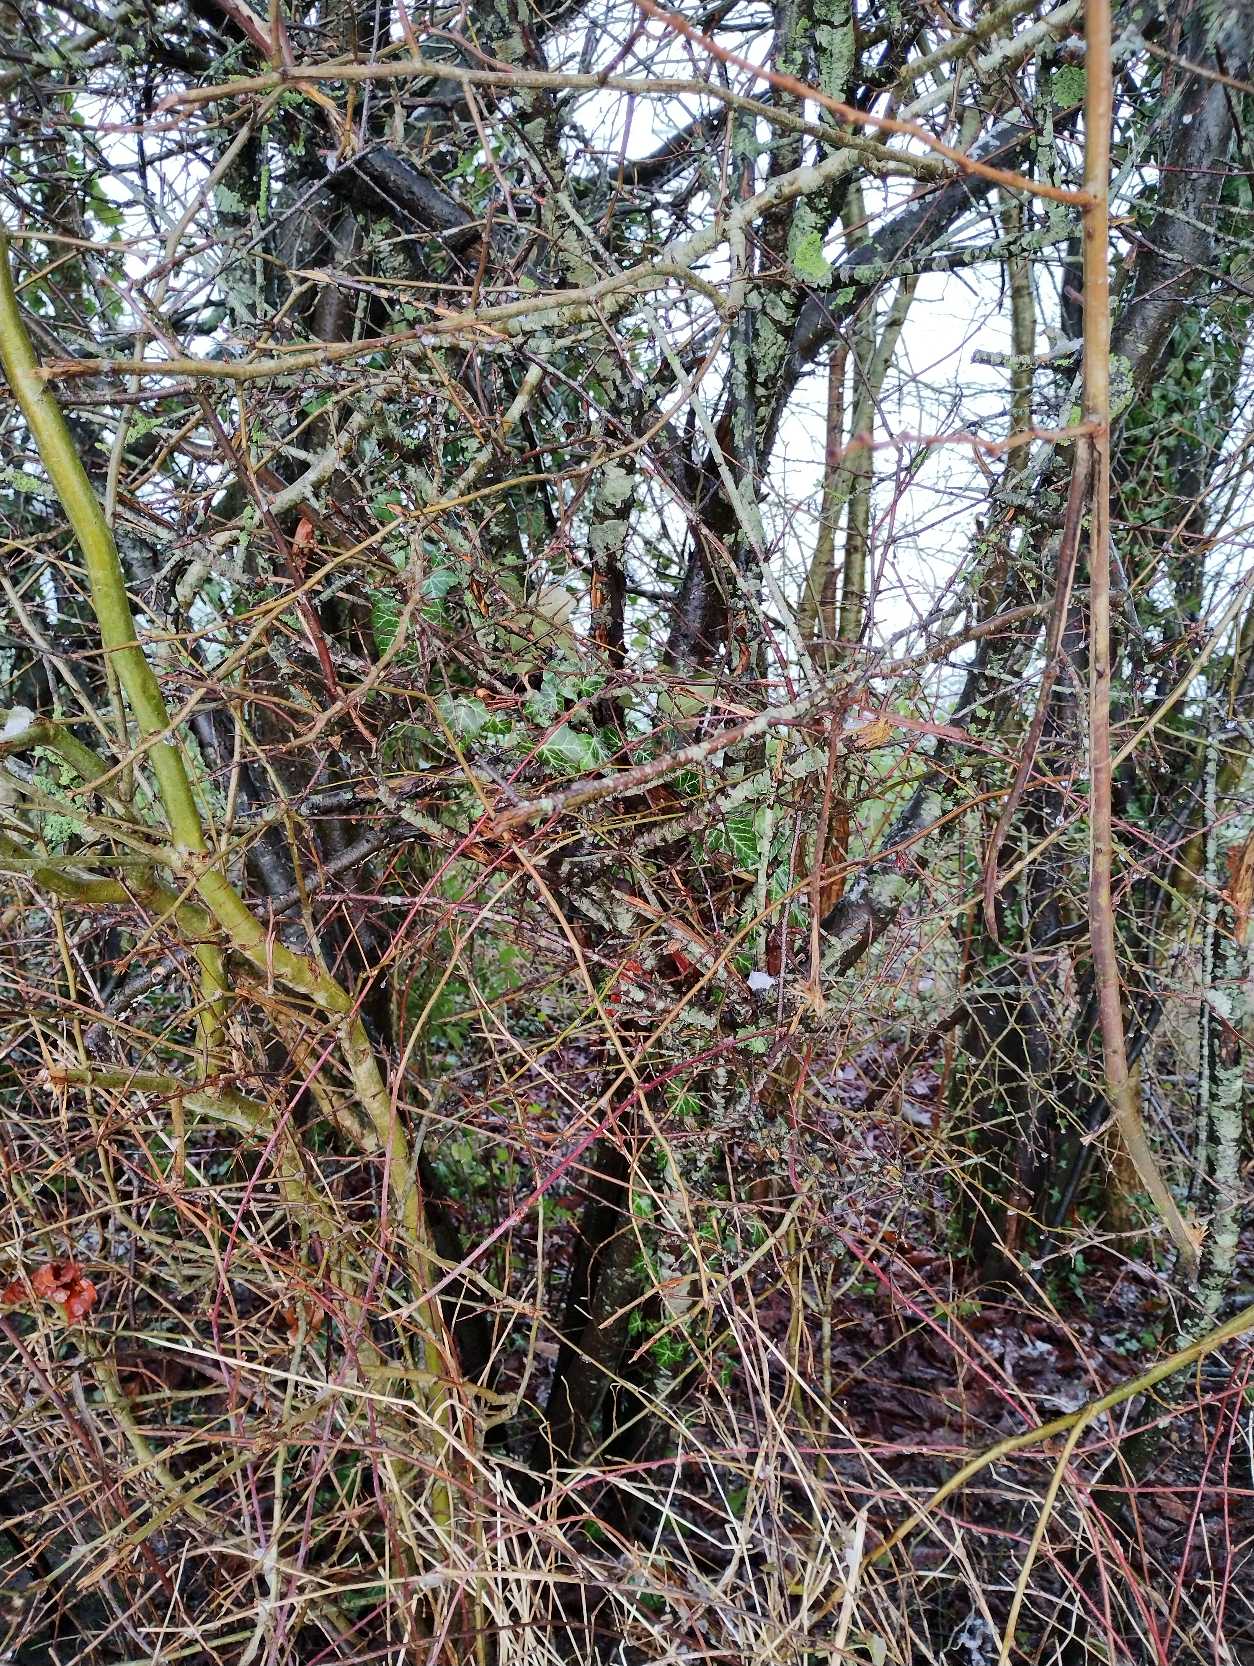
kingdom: Plantae
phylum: Tracheophyta
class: Magnoliopsida
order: Apiales
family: Araliaceae
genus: Hedera
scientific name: Hedera helix
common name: Vedbend
